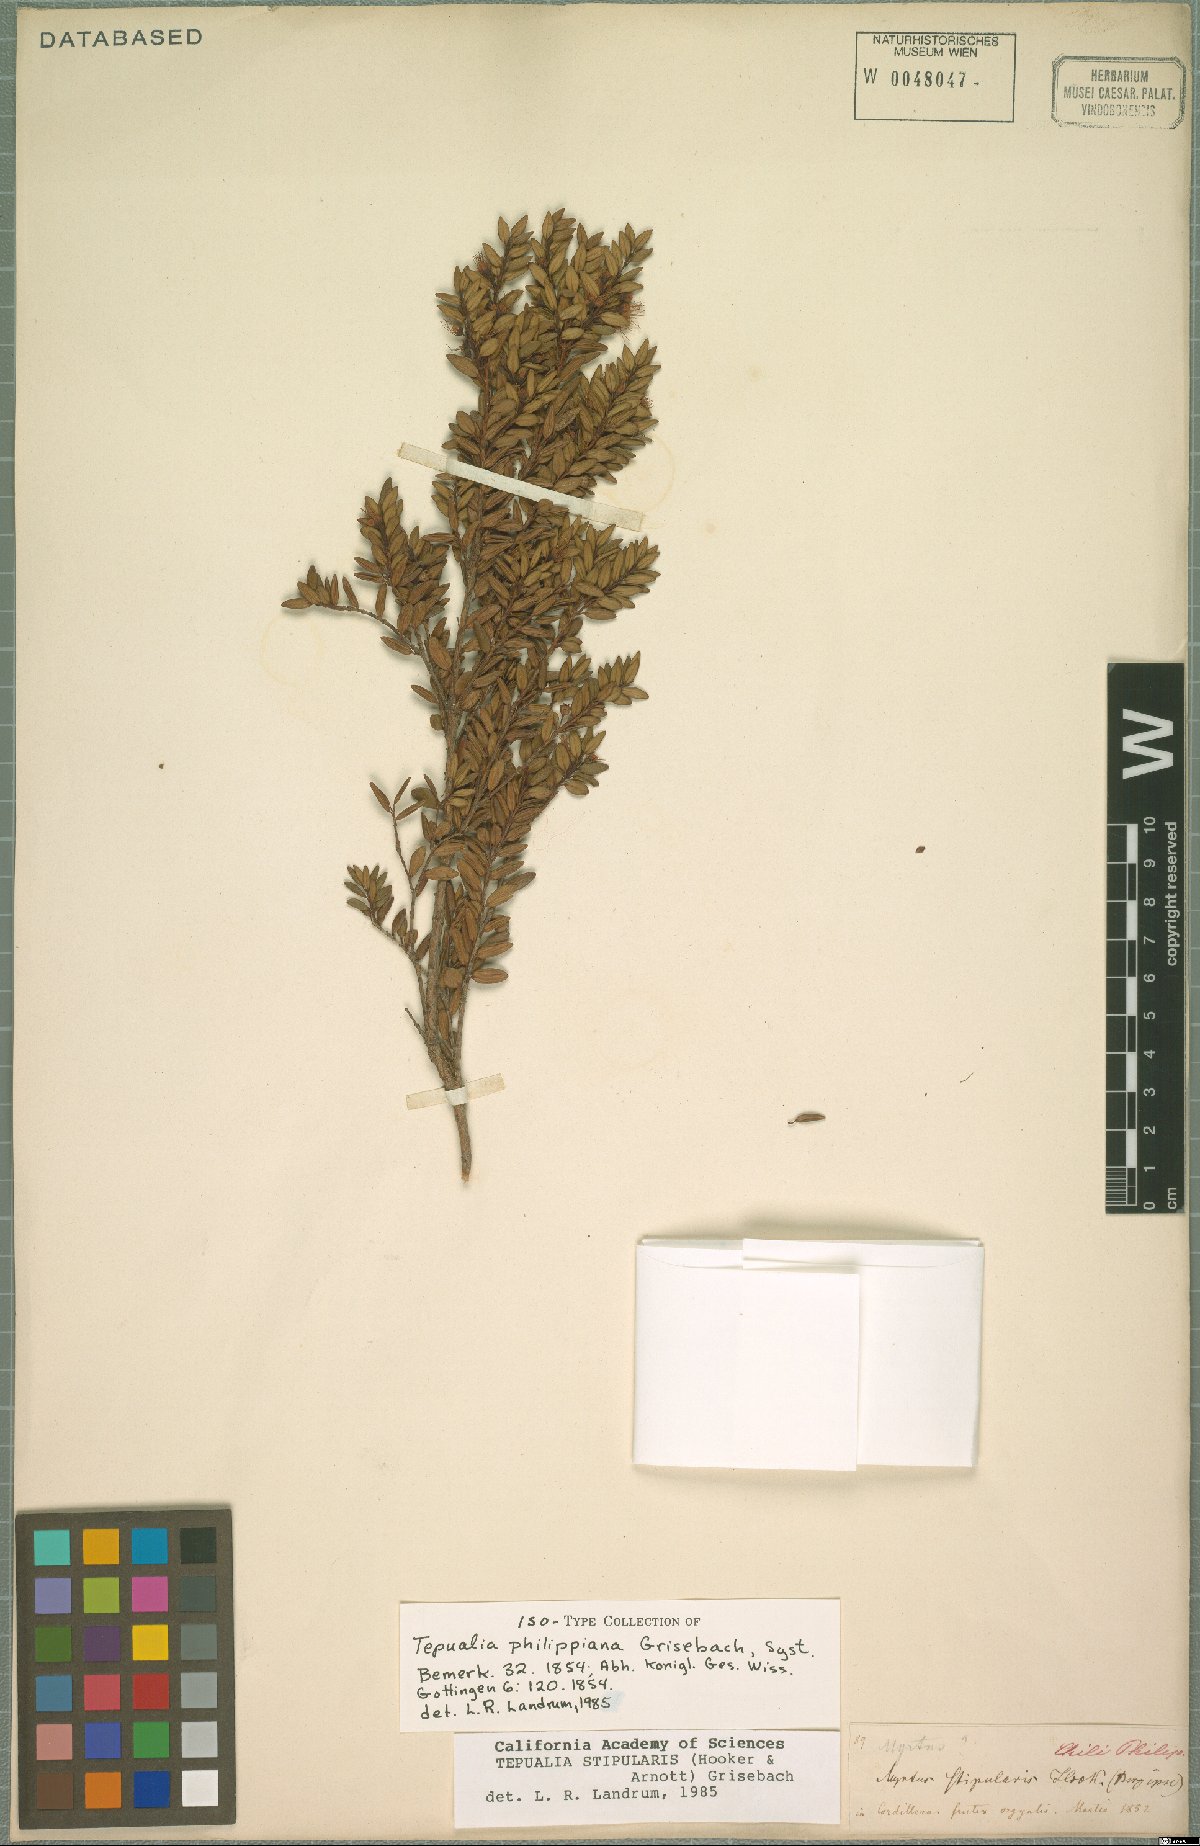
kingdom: Plantae
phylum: Tracheophyta
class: Magnoliopsida
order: Myrtales
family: Myrtaceae
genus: Tepualia
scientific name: Tepualia stipularis
